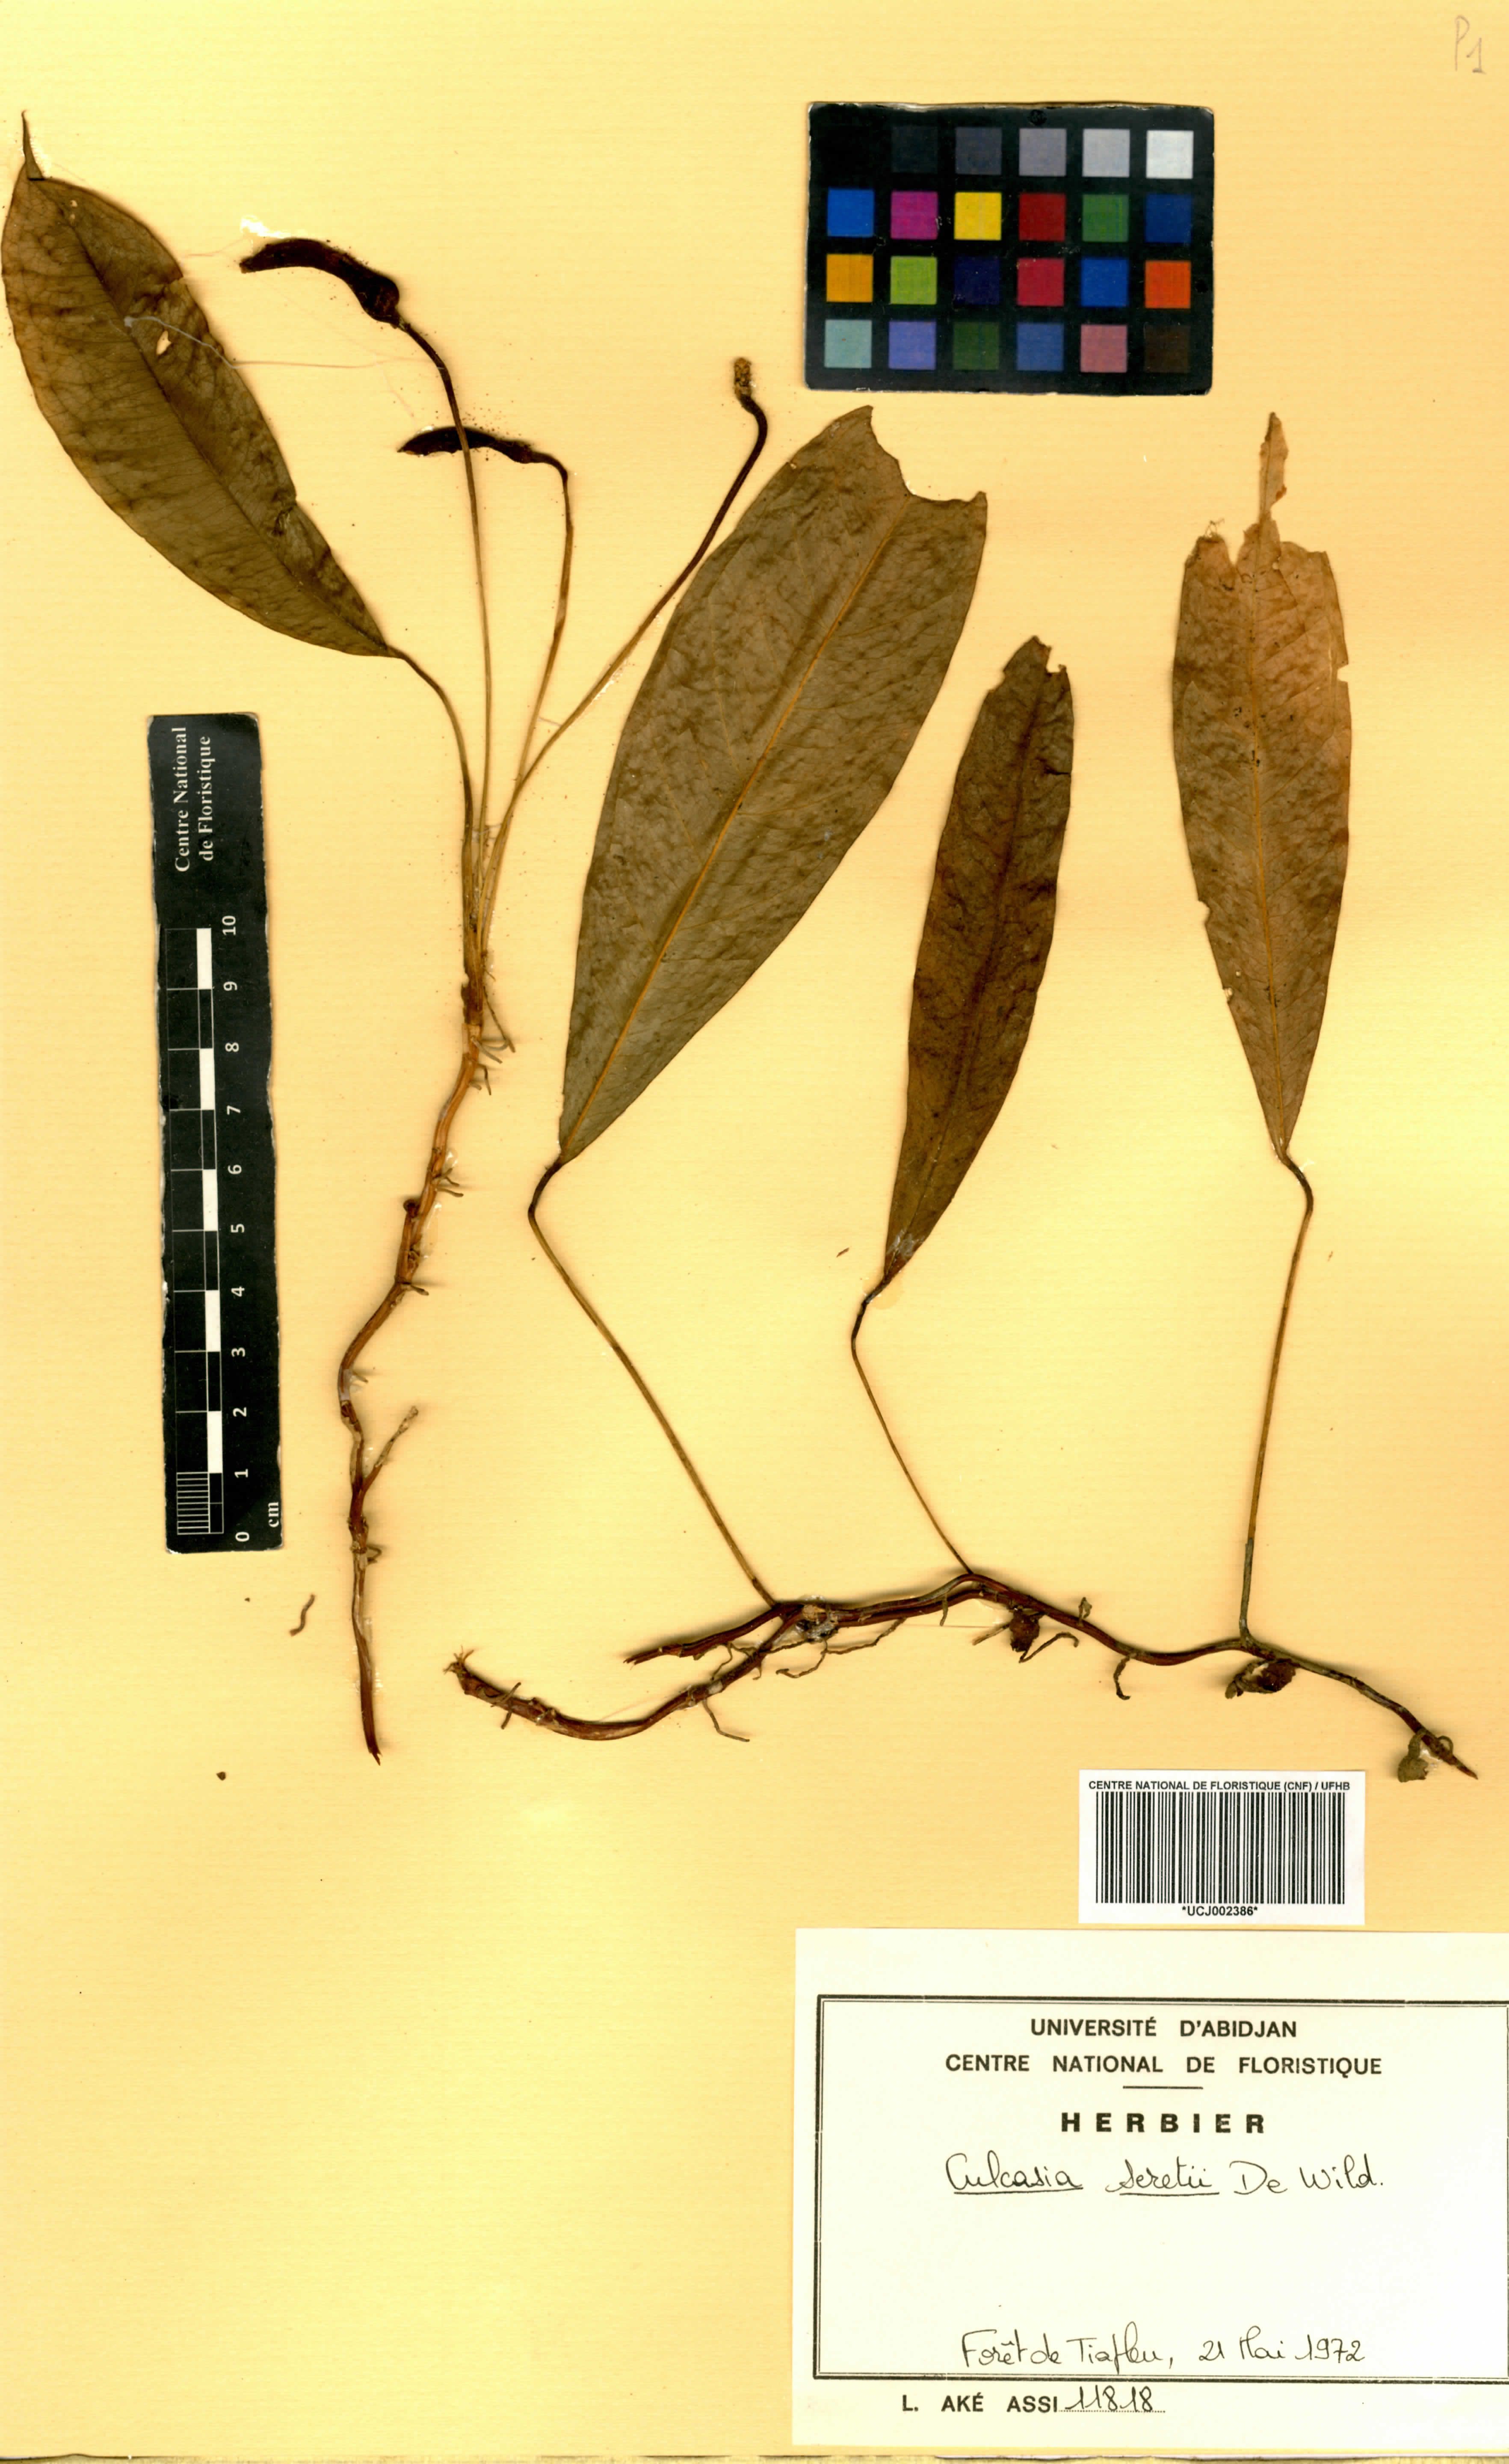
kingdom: Plantae
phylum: Tracheophyta
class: Liliopsida
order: Alismatales
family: Araceae
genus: Culcasia
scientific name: Culcasia seretii
